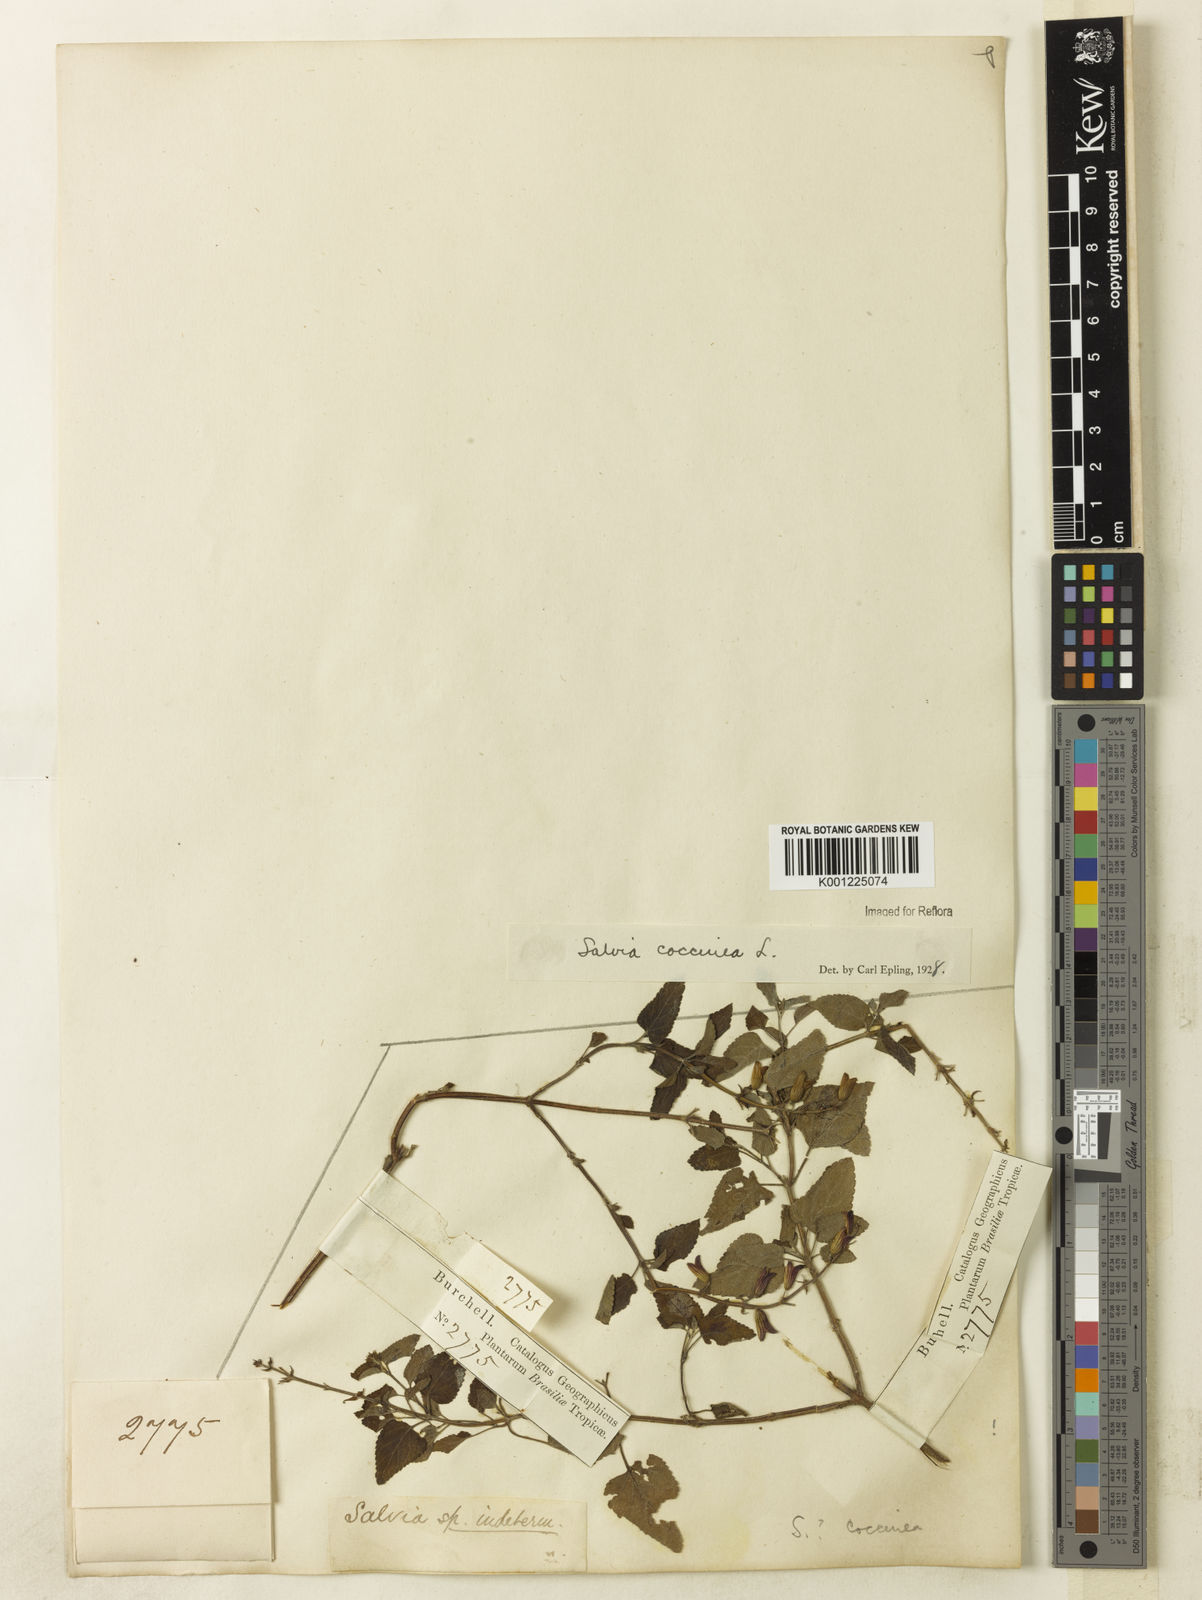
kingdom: Plantae
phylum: Tracheophyta
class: Magnoliopsida
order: Lamiales
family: Lamiaceae
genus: Salvia
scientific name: Salvia coccinea
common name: Blood sage
